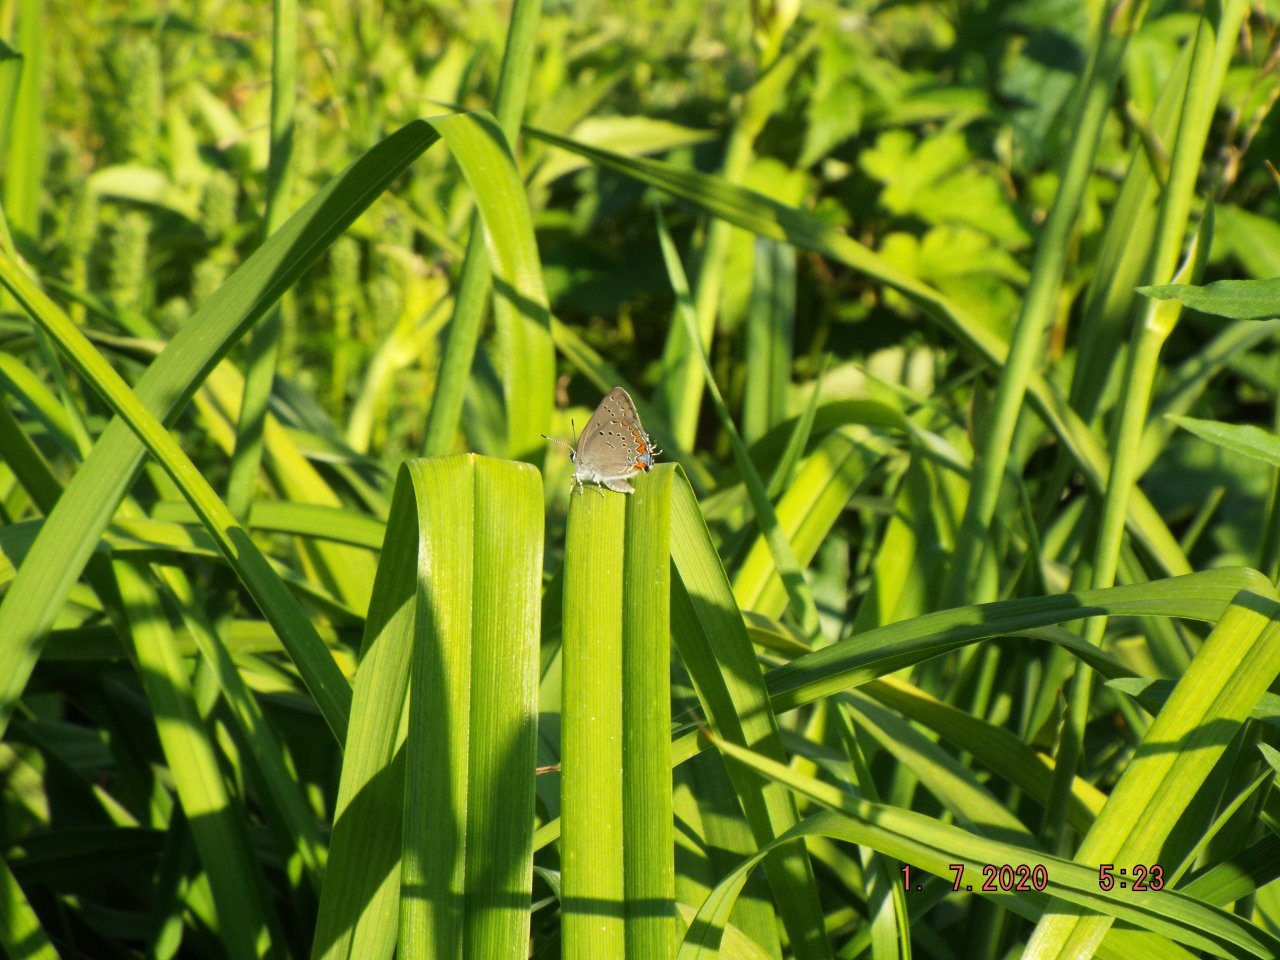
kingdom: Animalia
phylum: Arthropoda
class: Insecta
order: Lepidoptera
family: Lycaenidae
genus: Strymon
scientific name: Strymon acadica
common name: Acadian Hairstreak
